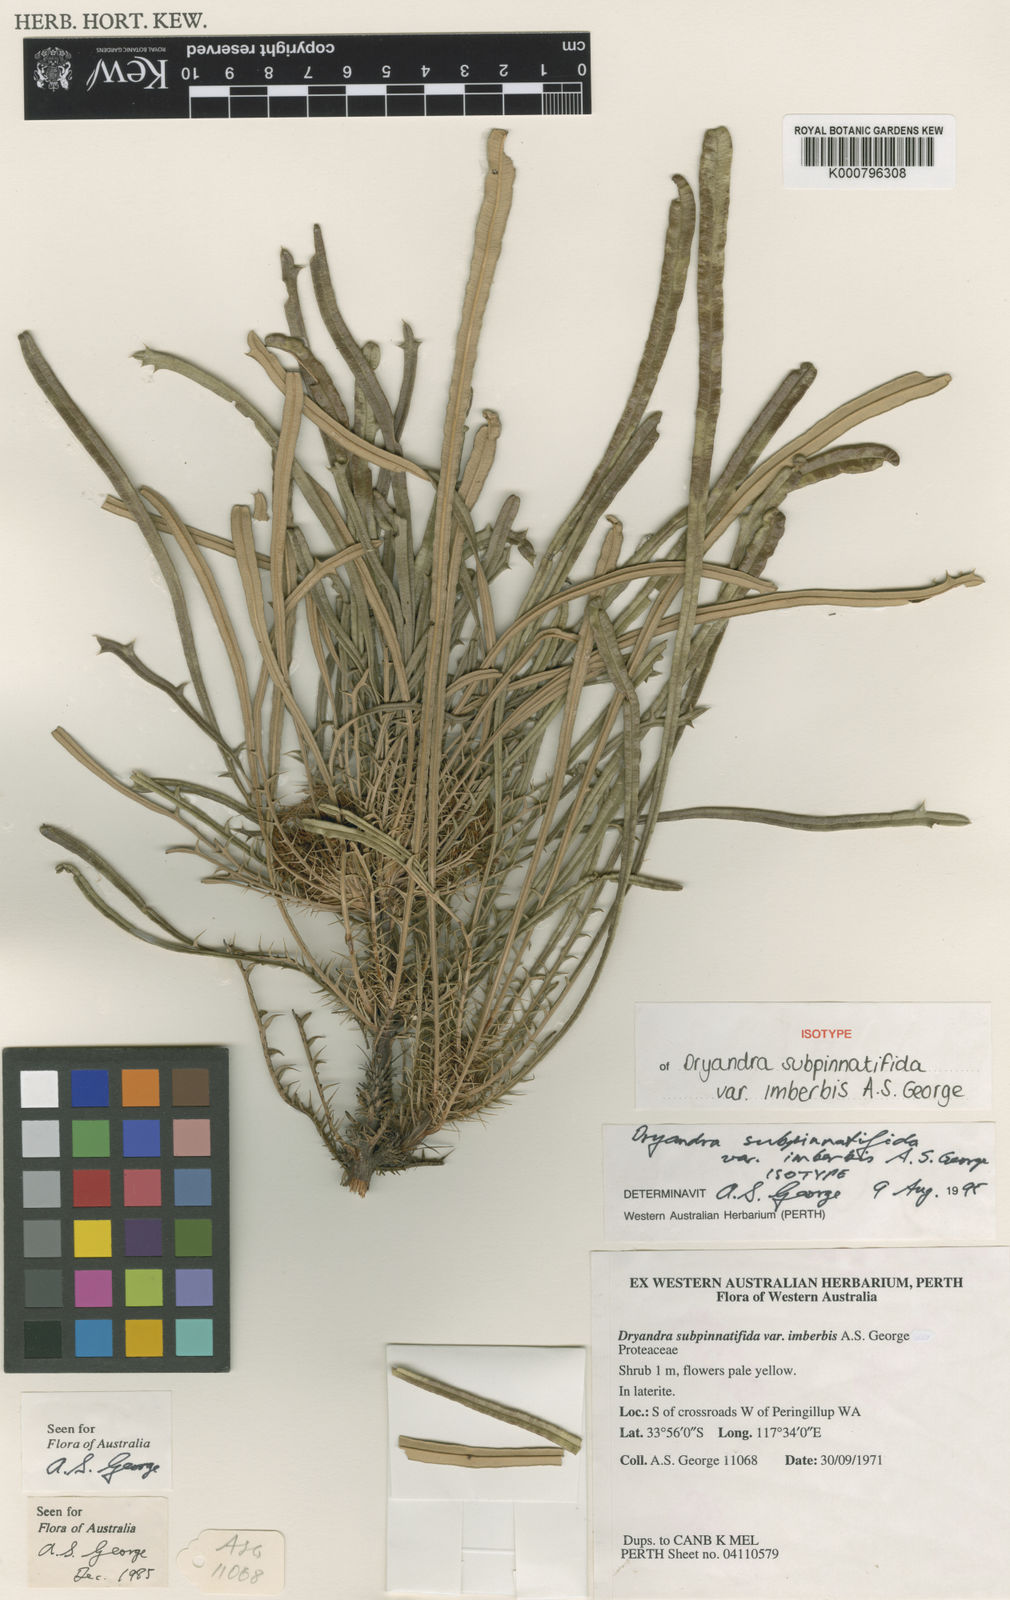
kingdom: Plantae
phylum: Tracheophyta
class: Magnoliopsida
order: Proteales
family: Proteaceae
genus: Banksia
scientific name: Banksia subpinnatifida
